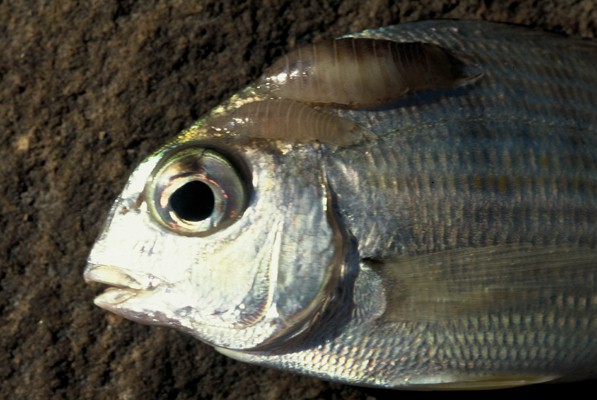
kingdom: Animalia
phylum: Chordata
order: Perciformes
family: Sparidae
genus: Rhabdosargus
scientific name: Rhabdosargus holubi
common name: Cape stumpnose
